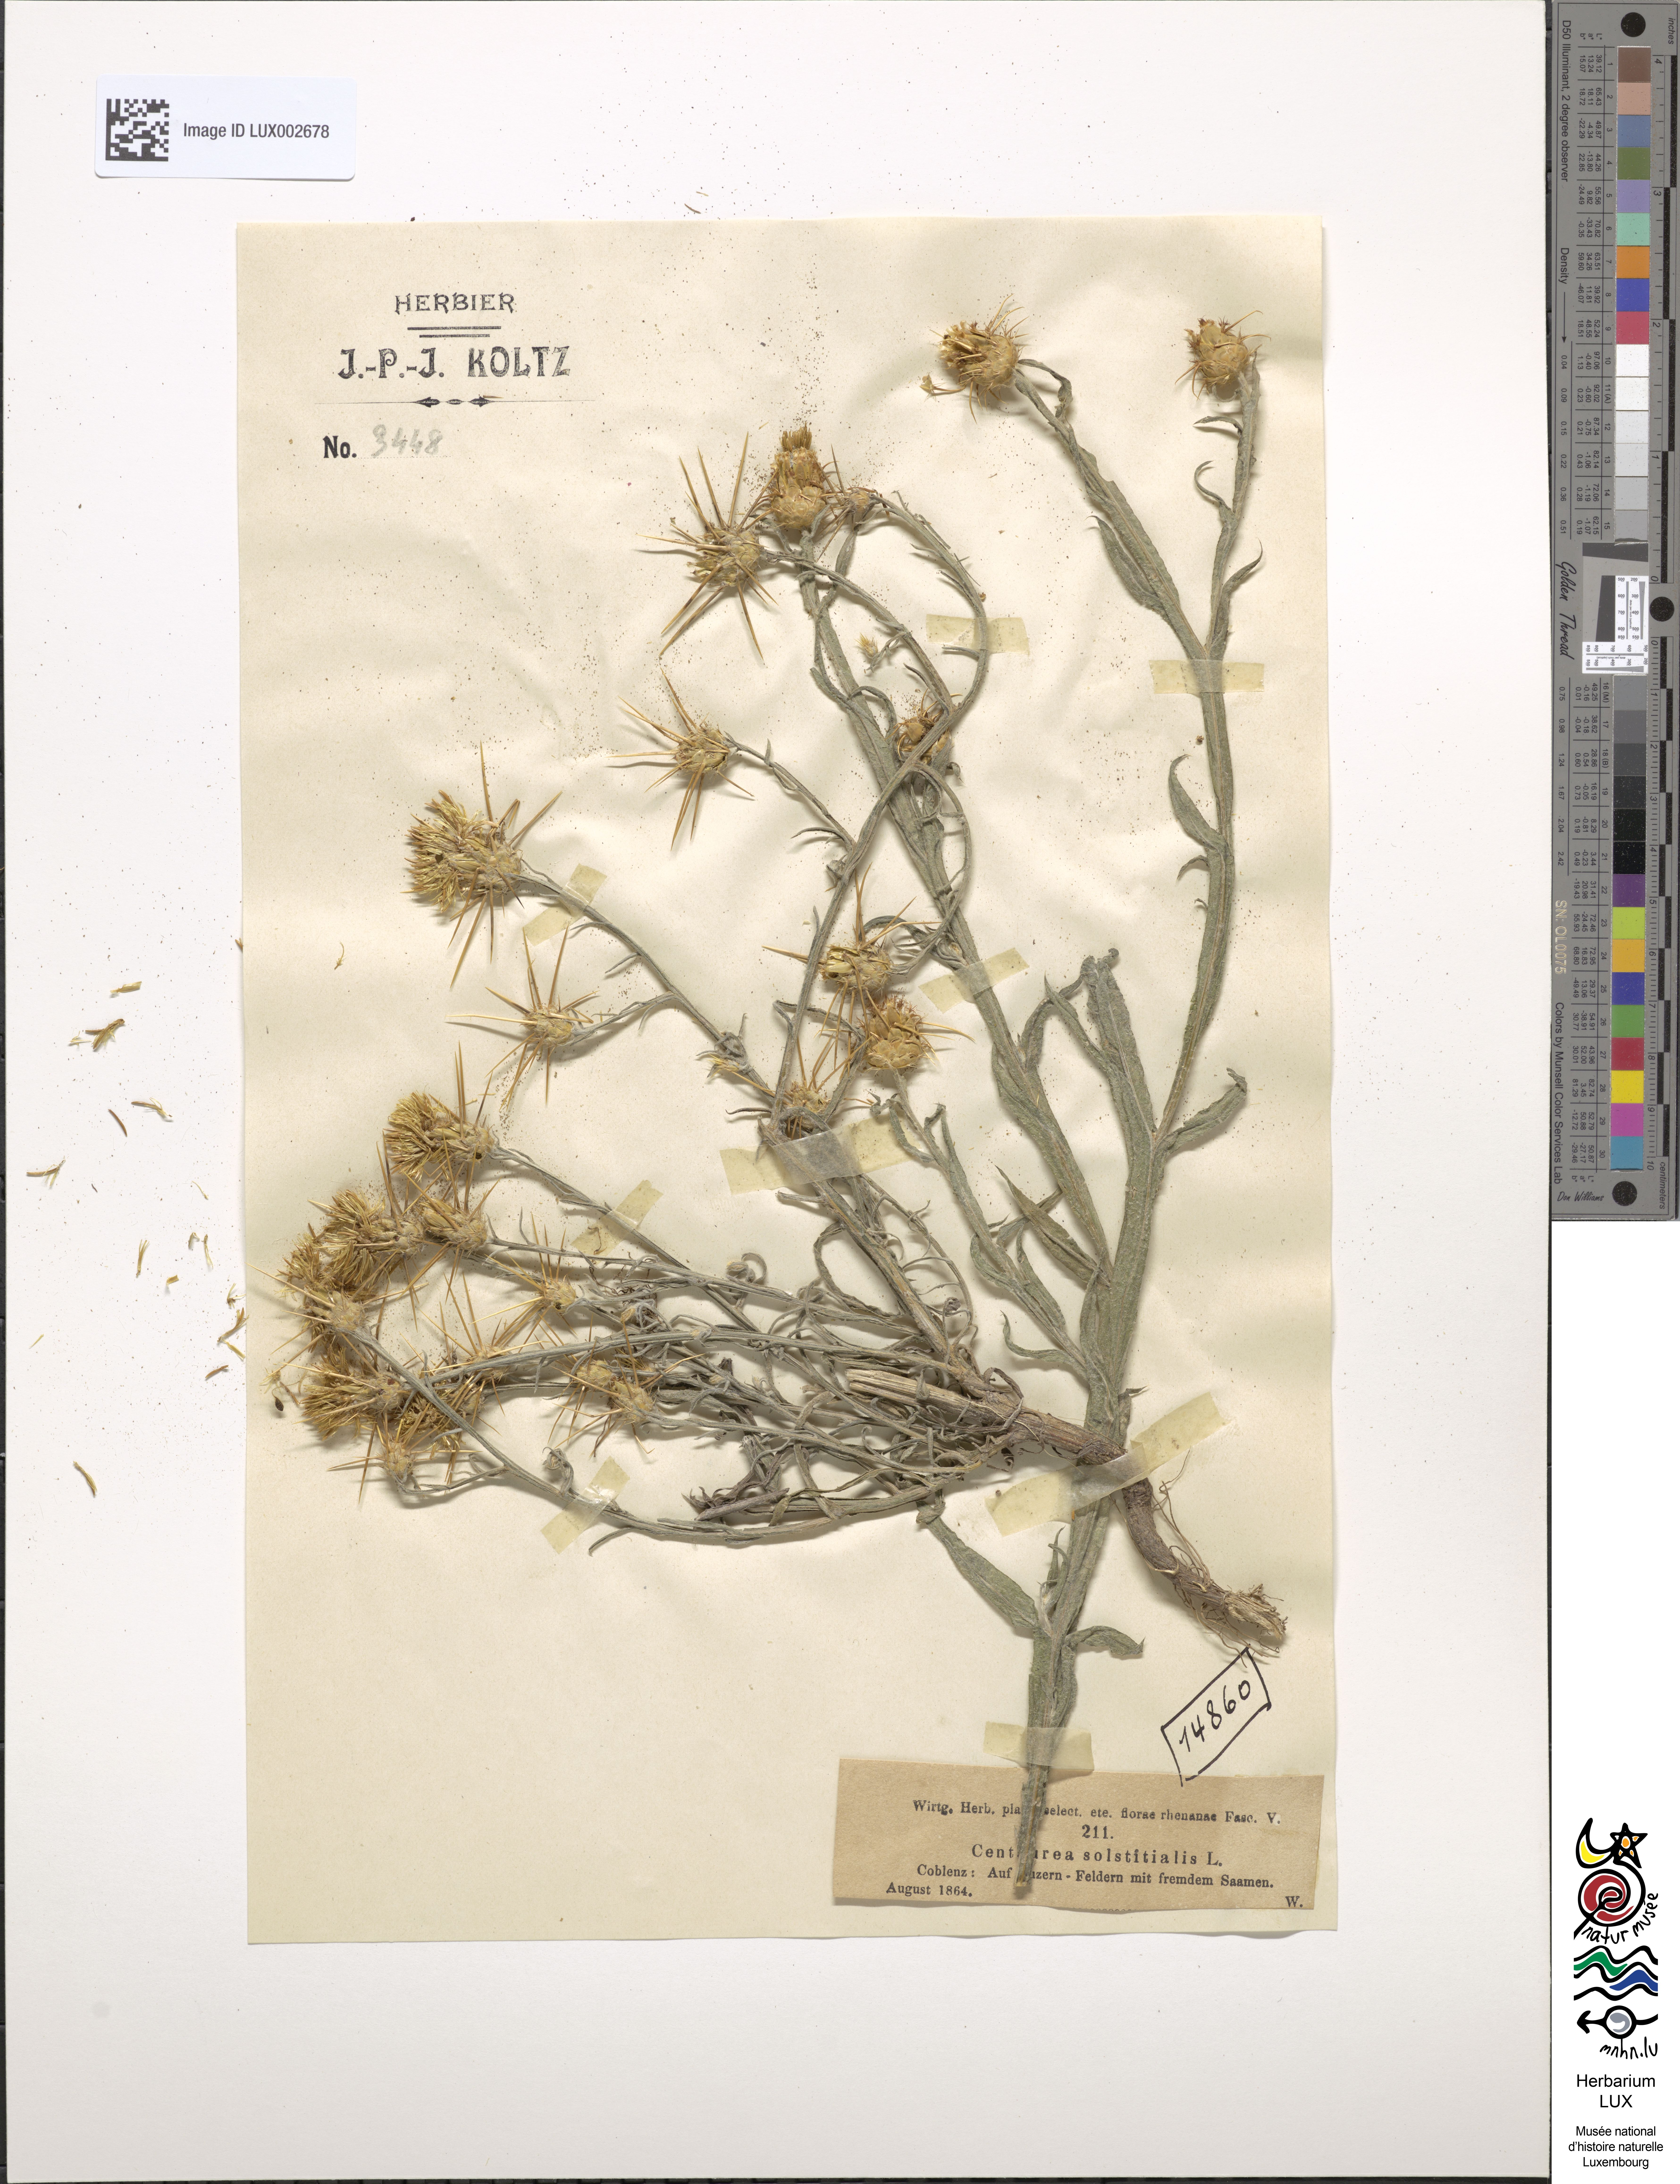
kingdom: Plantae
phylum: Tracheophyta
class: Magnoliopsida
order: Asterales
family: Asteraceae
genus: Centaurea
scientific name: Centaurea solstitialis
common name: Yellow star-thistle
